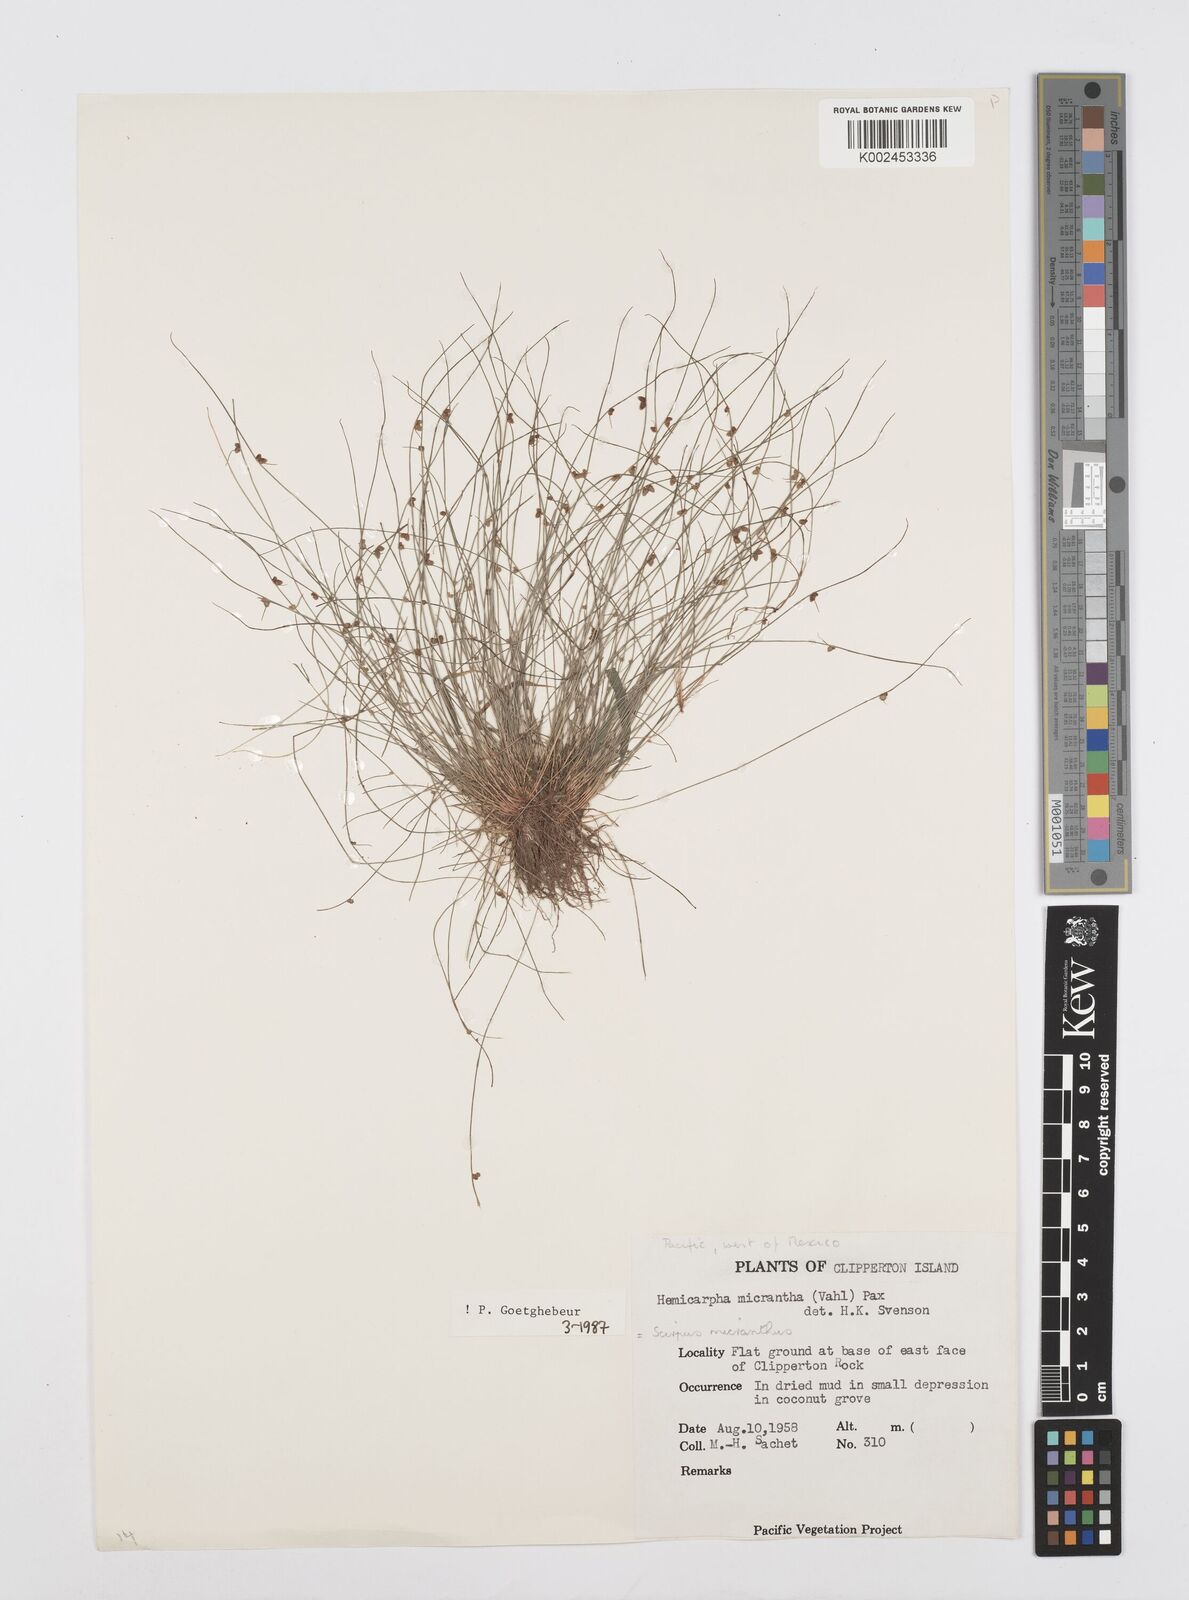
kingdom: Plantae
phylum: Tracheophyta
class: Liliopsida
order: Poales
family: Cyperaceae
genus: Cyperus
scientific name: Cyperus
